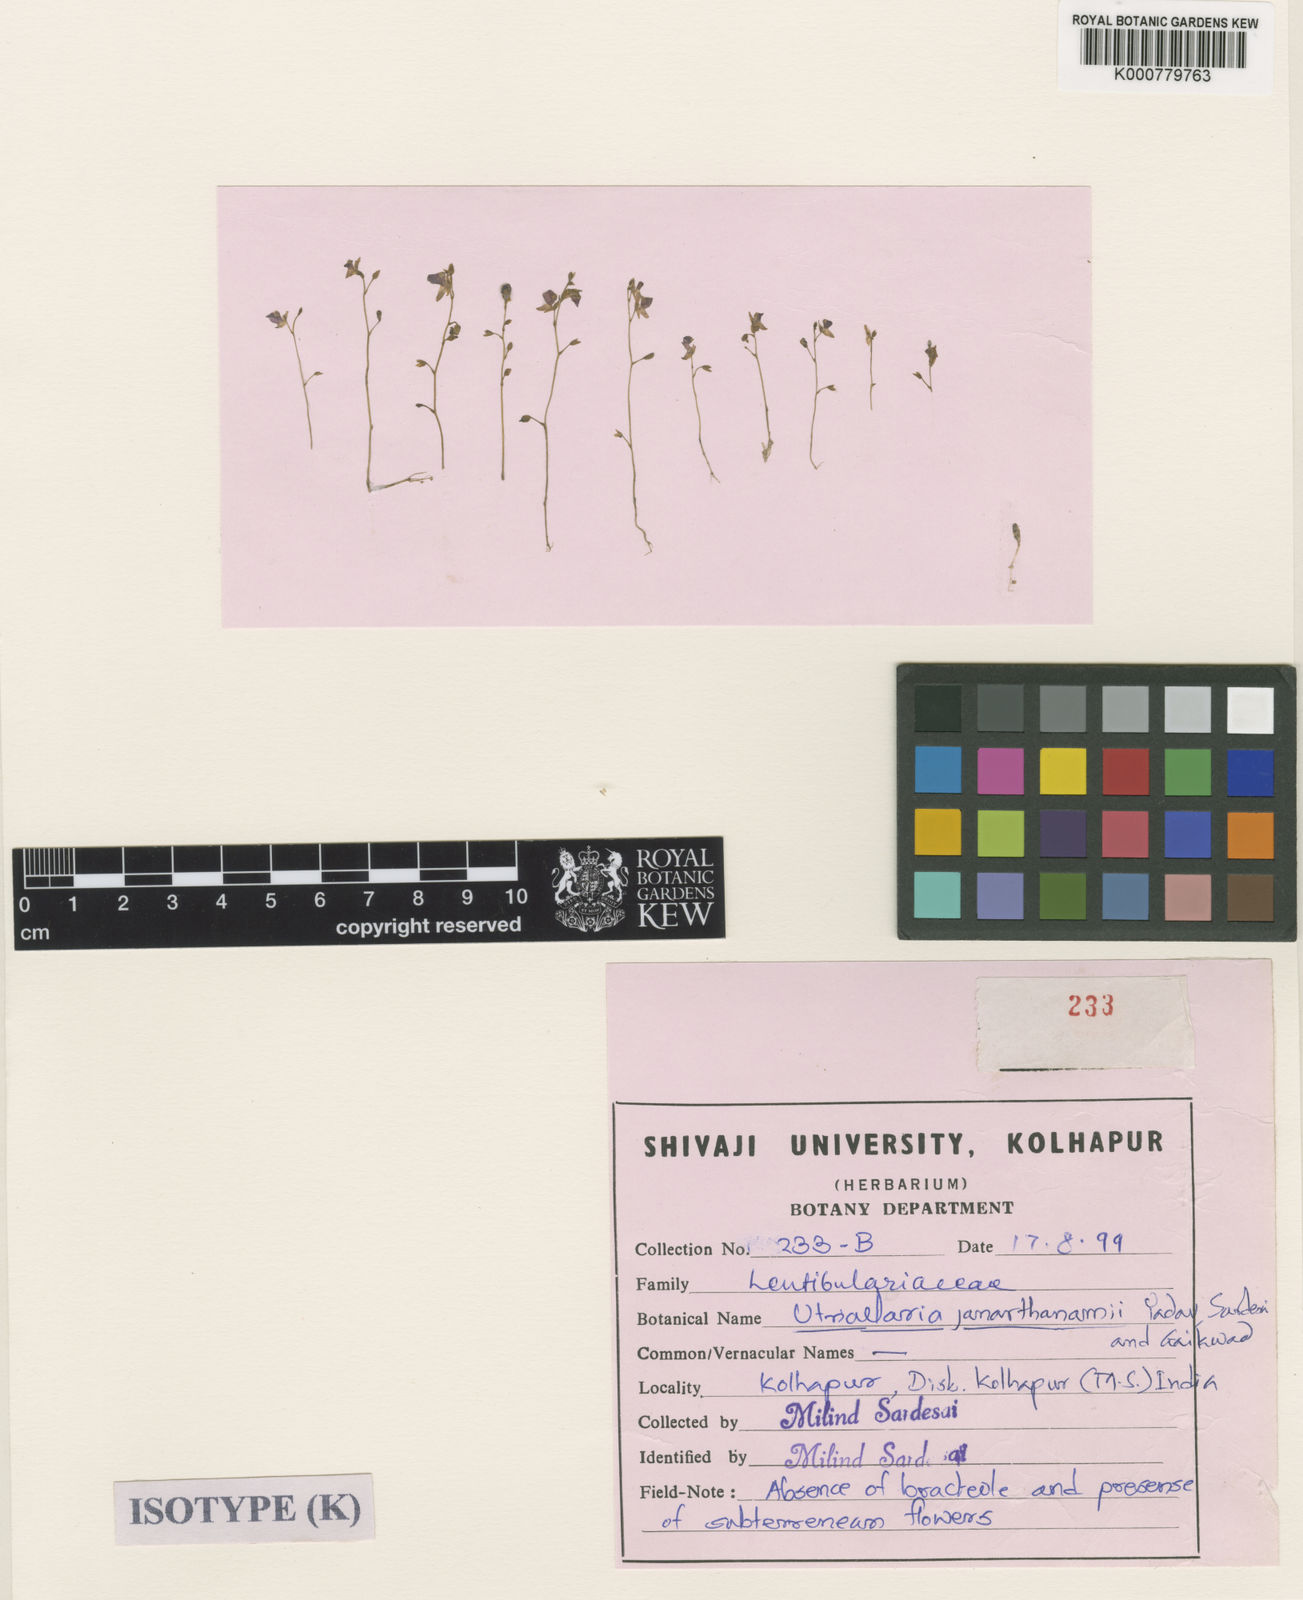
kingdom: Plantae
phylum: Tracheophyta
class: Magnoliopsida
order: Lamiales
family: Lentibulariaceae
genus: Utricularia
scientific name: Utricularia inthanonensis
